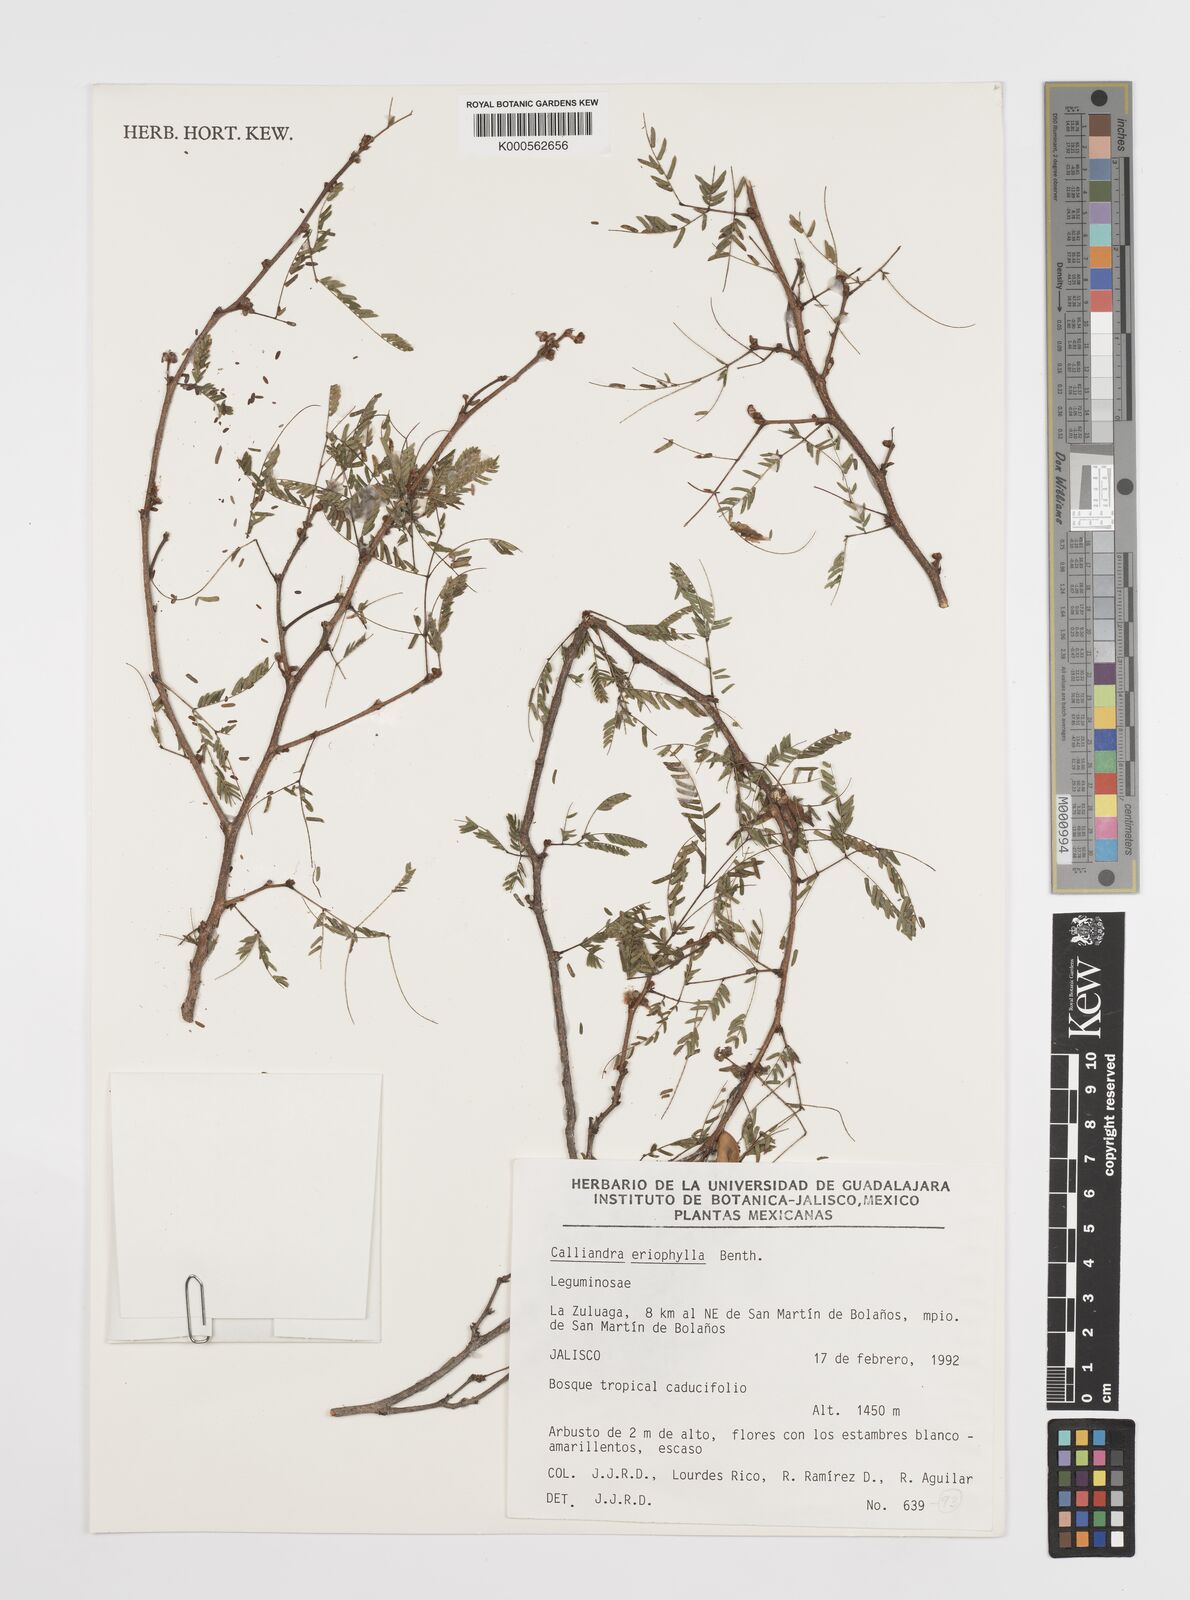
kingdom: Plantae
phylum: Tracheophyta
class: Magnoliopsida
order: Fabales
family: Fabaceae
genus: Calliandra
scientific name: Calliandra eriophylla
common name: Fairy-duster
